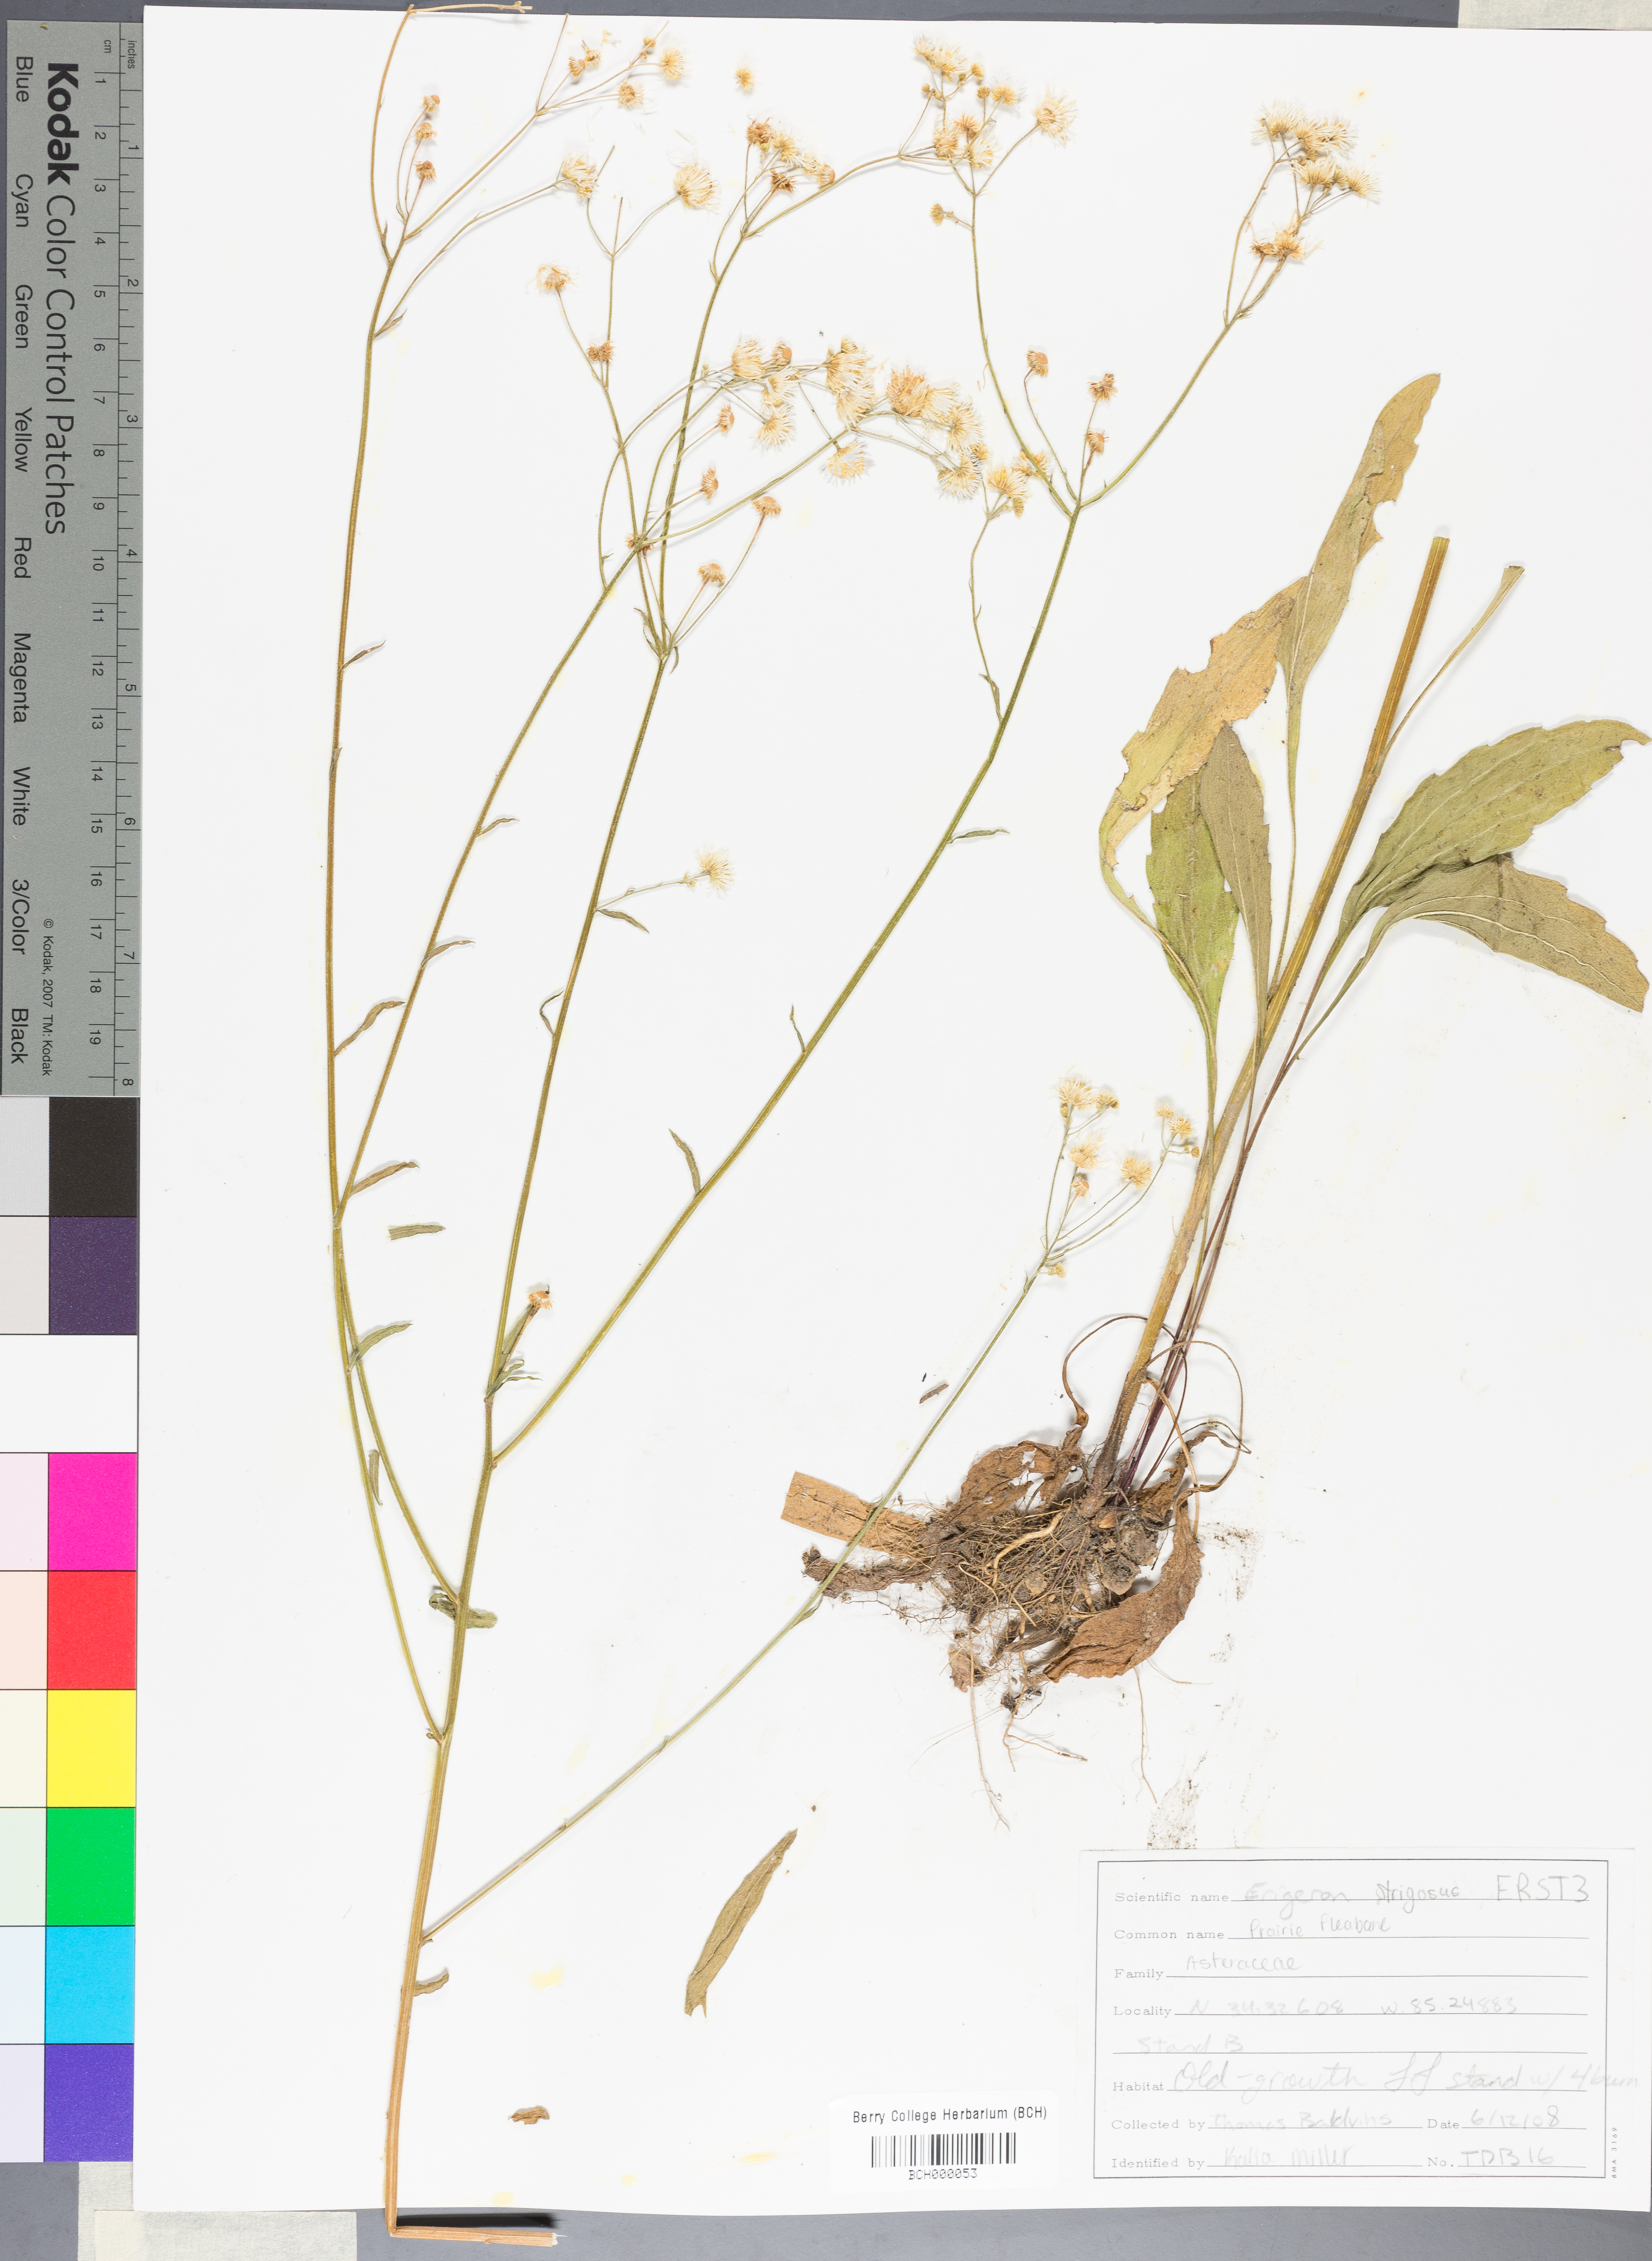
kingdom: Plantae
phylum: Tracheophyta
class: Magnoliopsida
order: Asterales
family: Asteraceae
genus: Erigeron
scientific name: Erigeron strigosus
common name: Common eastern fleabane
